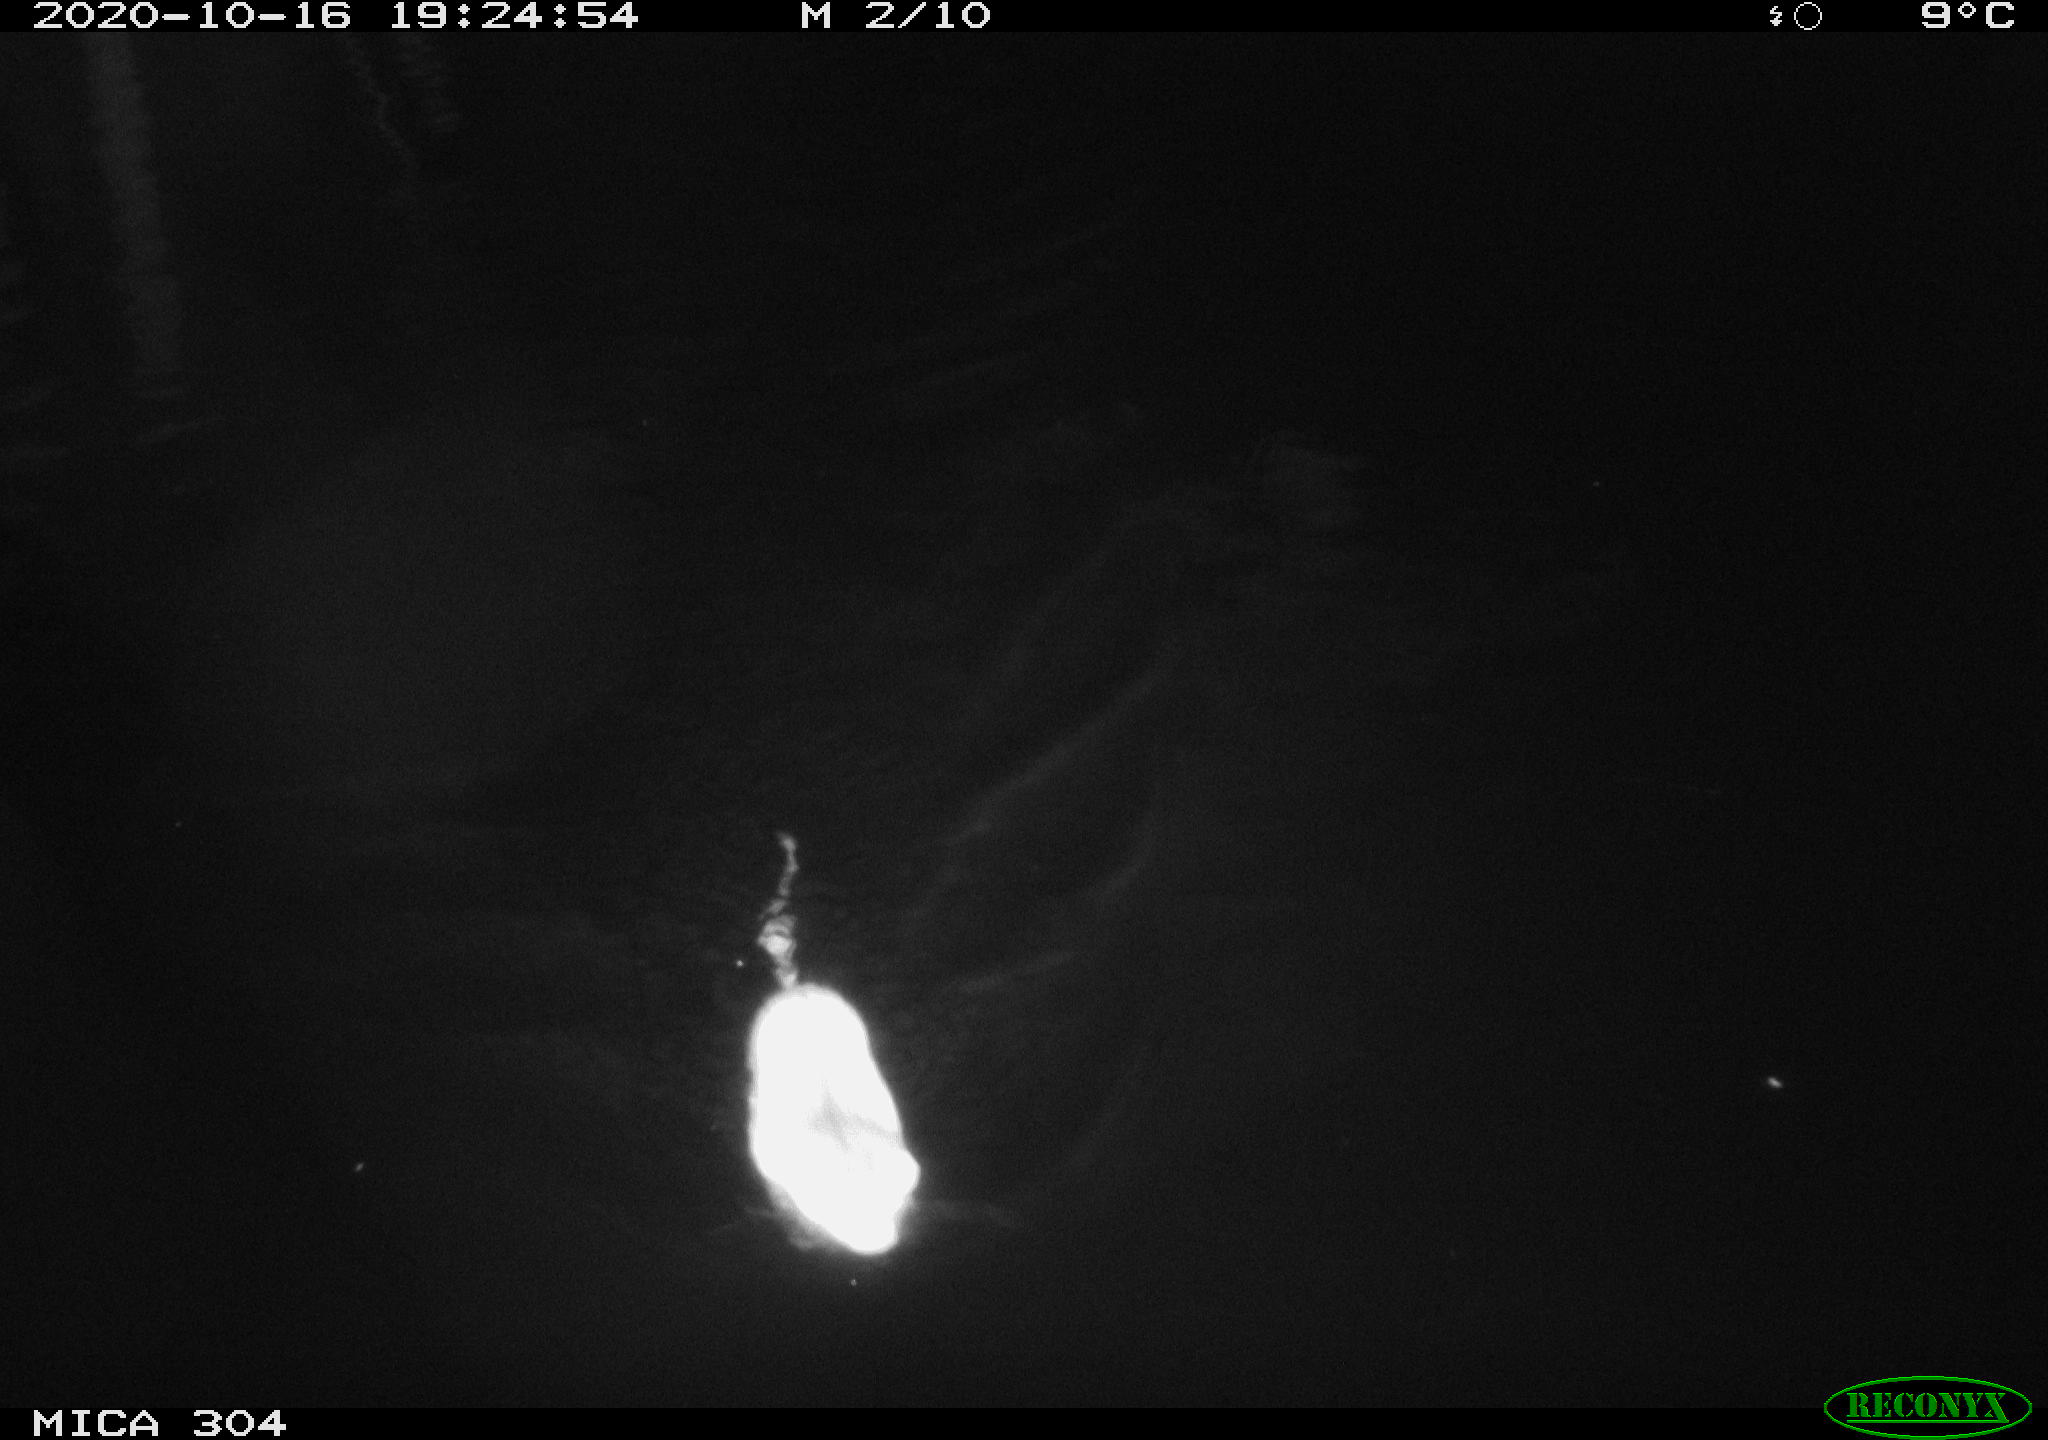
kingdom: Animalia
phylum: Chordata
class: Mammalia
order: Rodentia
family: Cricetidae
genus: Ondatra
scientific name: Ondatra zibethicus
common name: Muskrat
